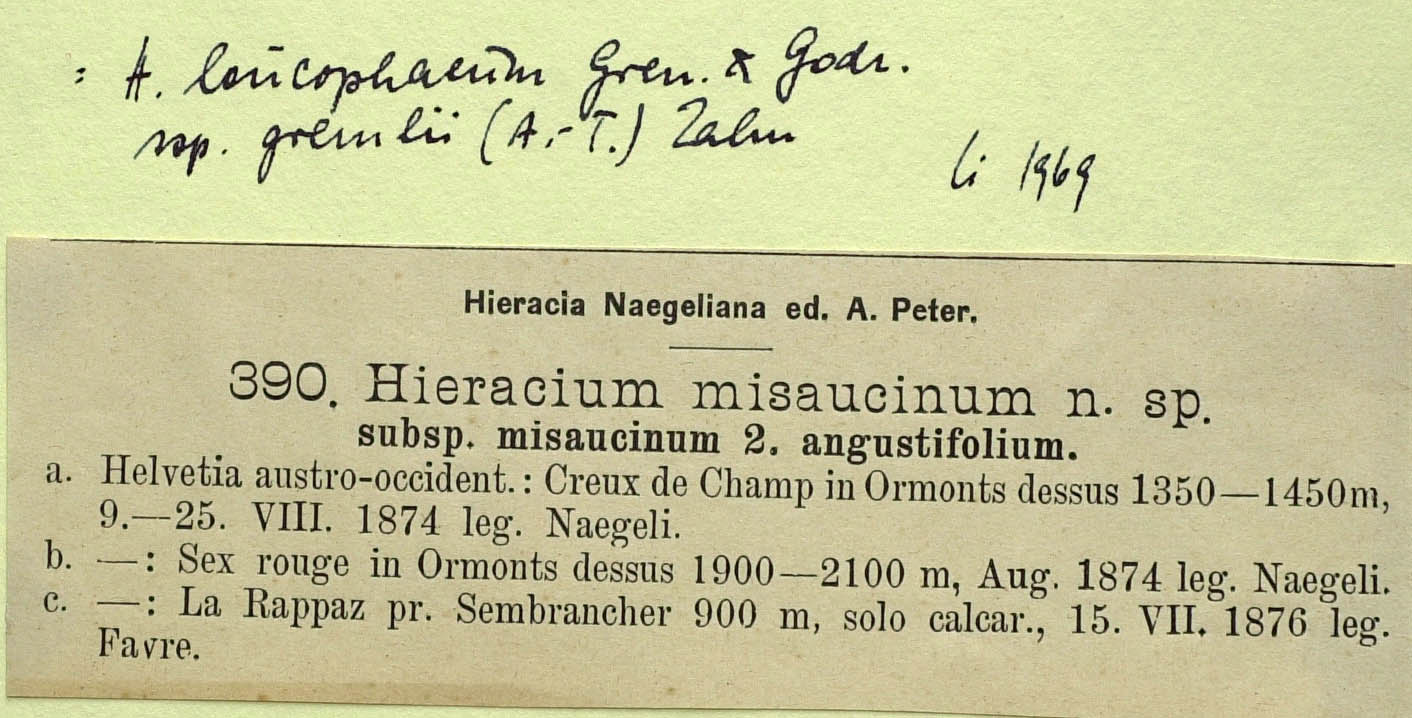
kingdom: Plantae
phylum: Tracheophyta
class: Magnoliopsida
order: Asterales
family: Asteraceae
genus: Hieracium
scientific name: Hieracium misaucinum
